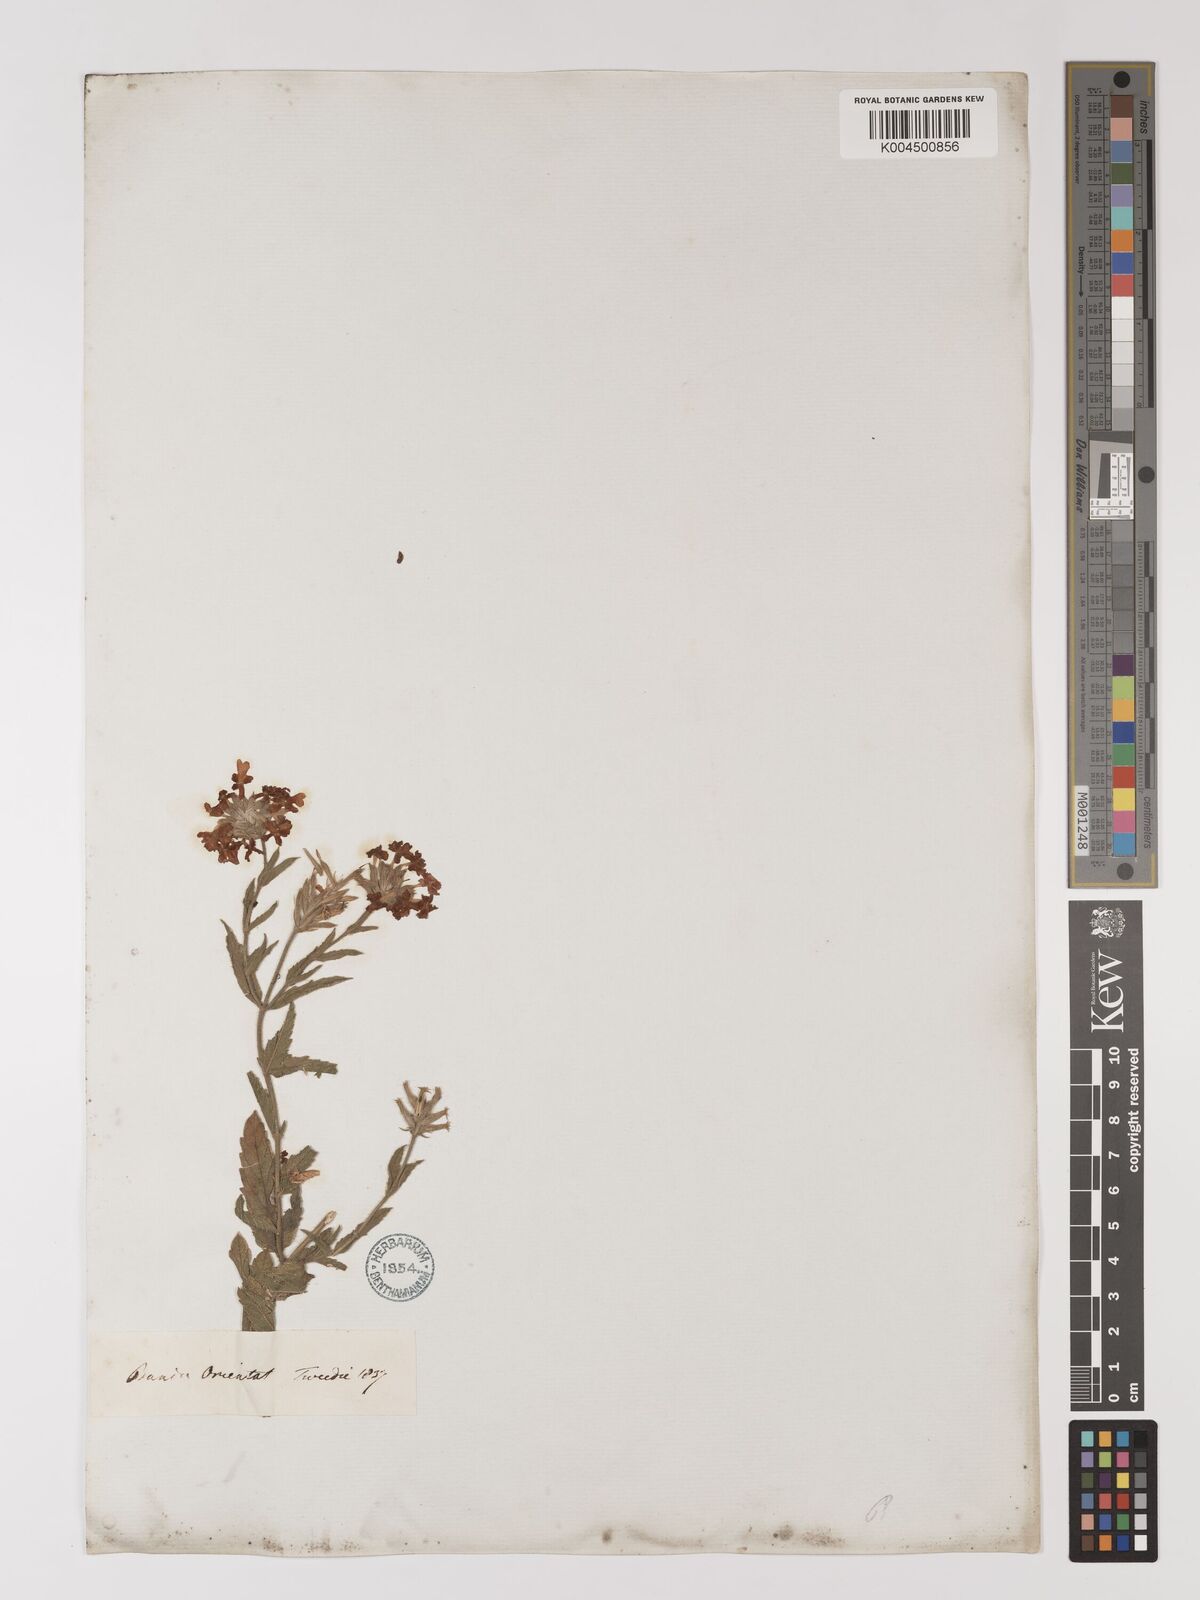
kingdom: Plantae
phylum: Tracheophyta
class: Magnoliopsida
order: Lamiales
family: Verbenaceae
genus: Verbena
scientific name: Verbena
